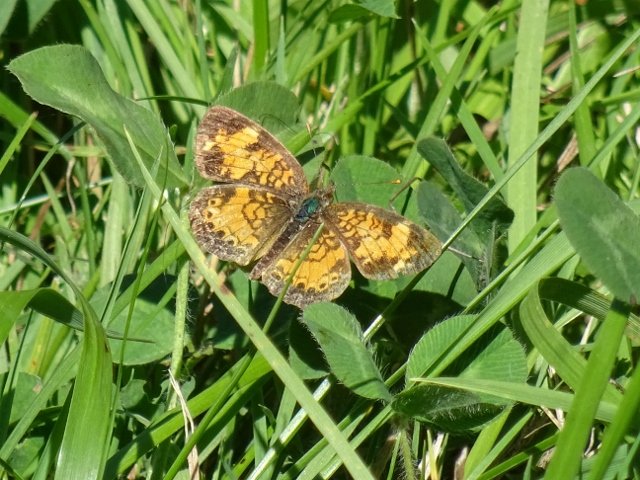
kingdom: Animalia
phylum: Arthropoda
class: Insecta
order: Lepidoptera
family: Nymphalidae
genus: Phyciodes
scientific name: Phyciodes tharos
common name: Northern Crescent
